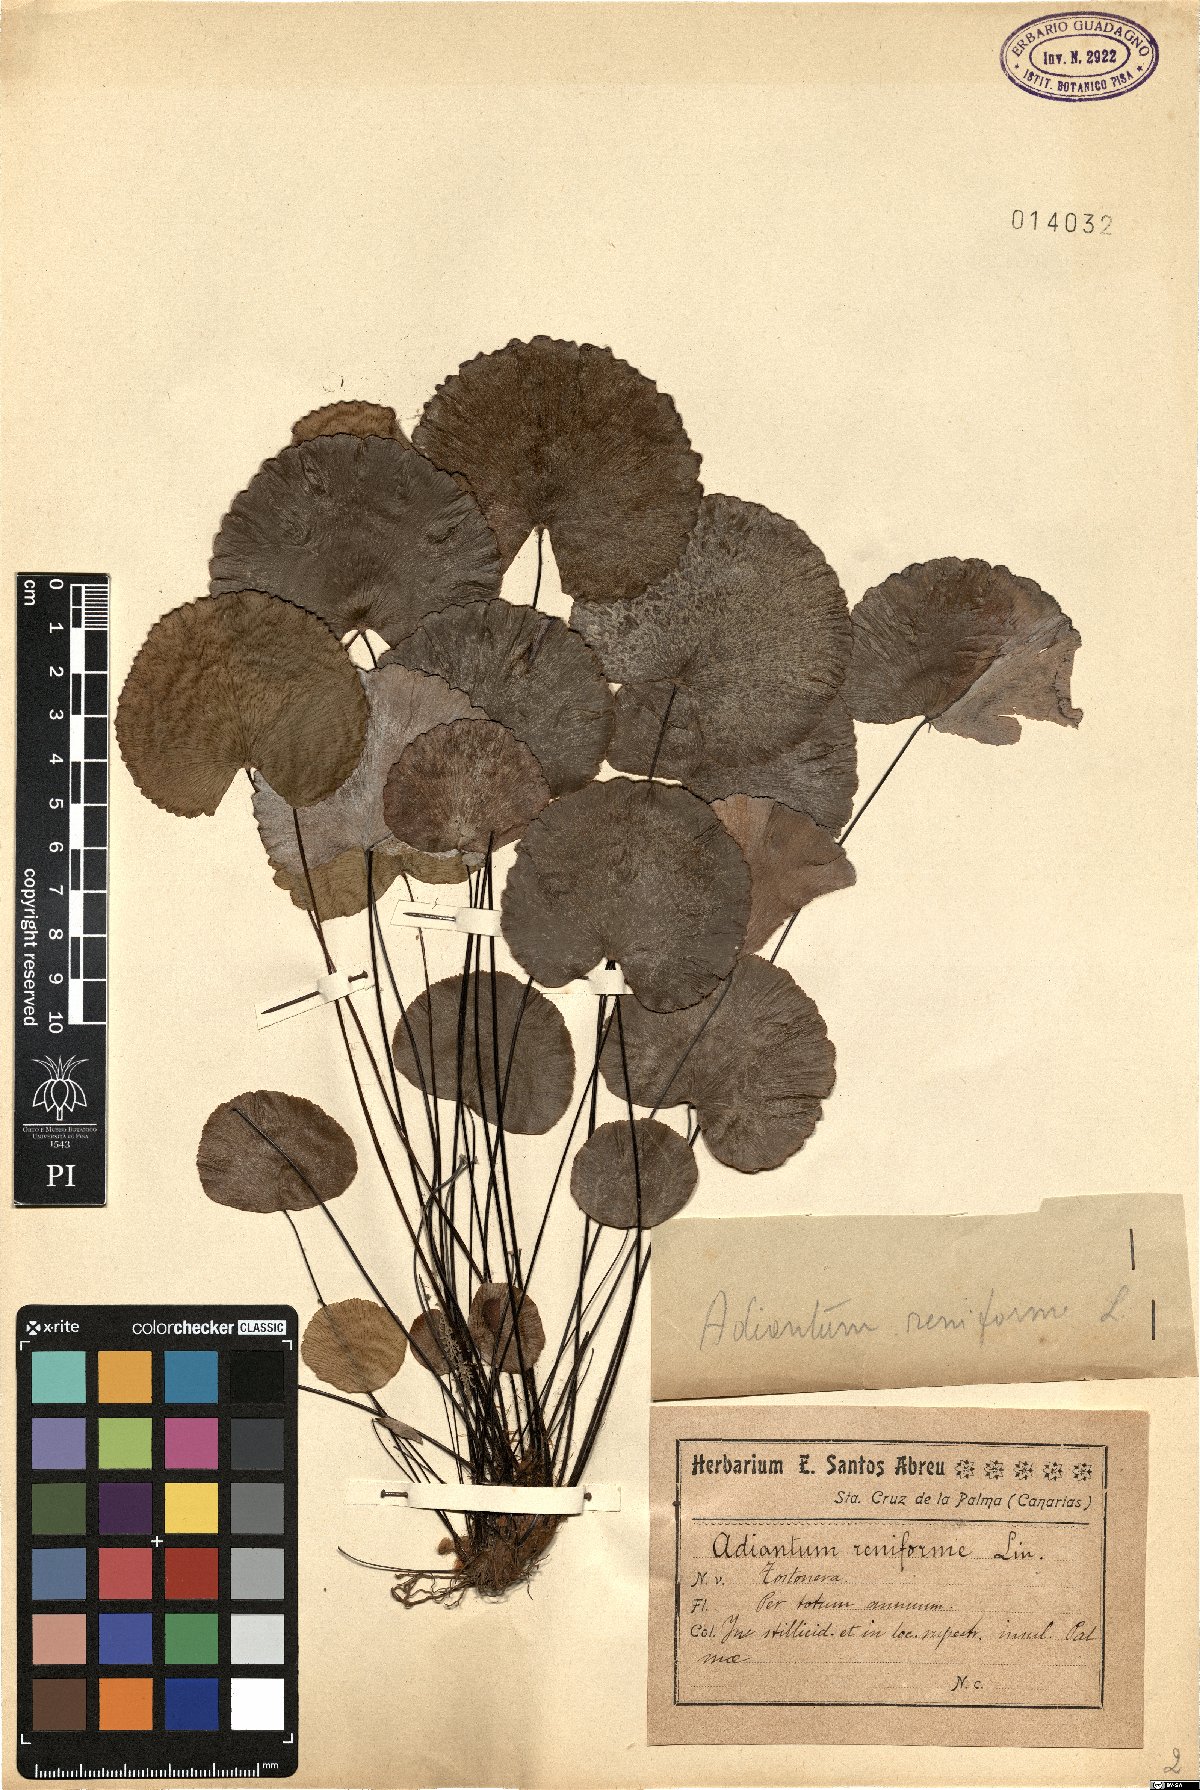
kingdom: Plantae
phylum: Tracheophyta
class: Polypodiopsida
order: Polypodiales
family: Pteridaceae
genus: Adiantum
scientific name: Adiantum reniforme
